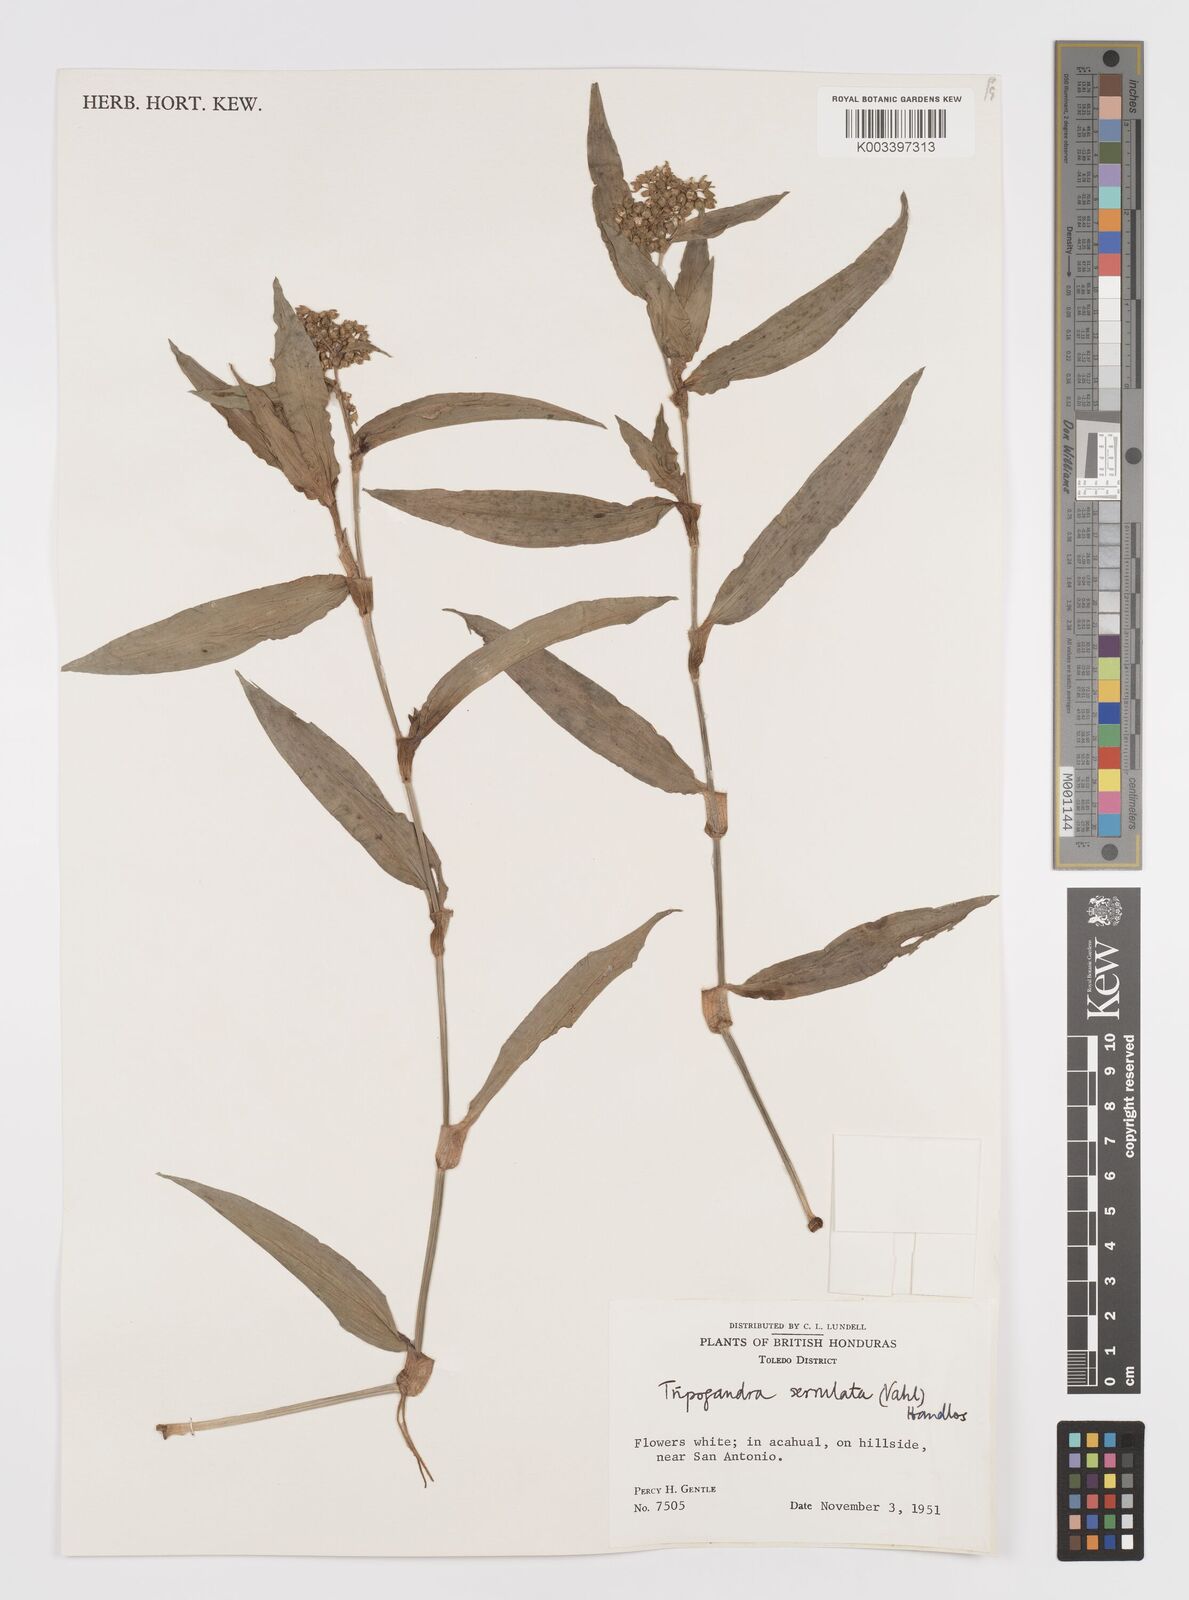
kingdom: Plantae
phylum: Tracheophyta
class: Liliopsida
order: Commelinales
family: Commelinaceae
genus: Callisia
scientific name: Callisia serrulata
